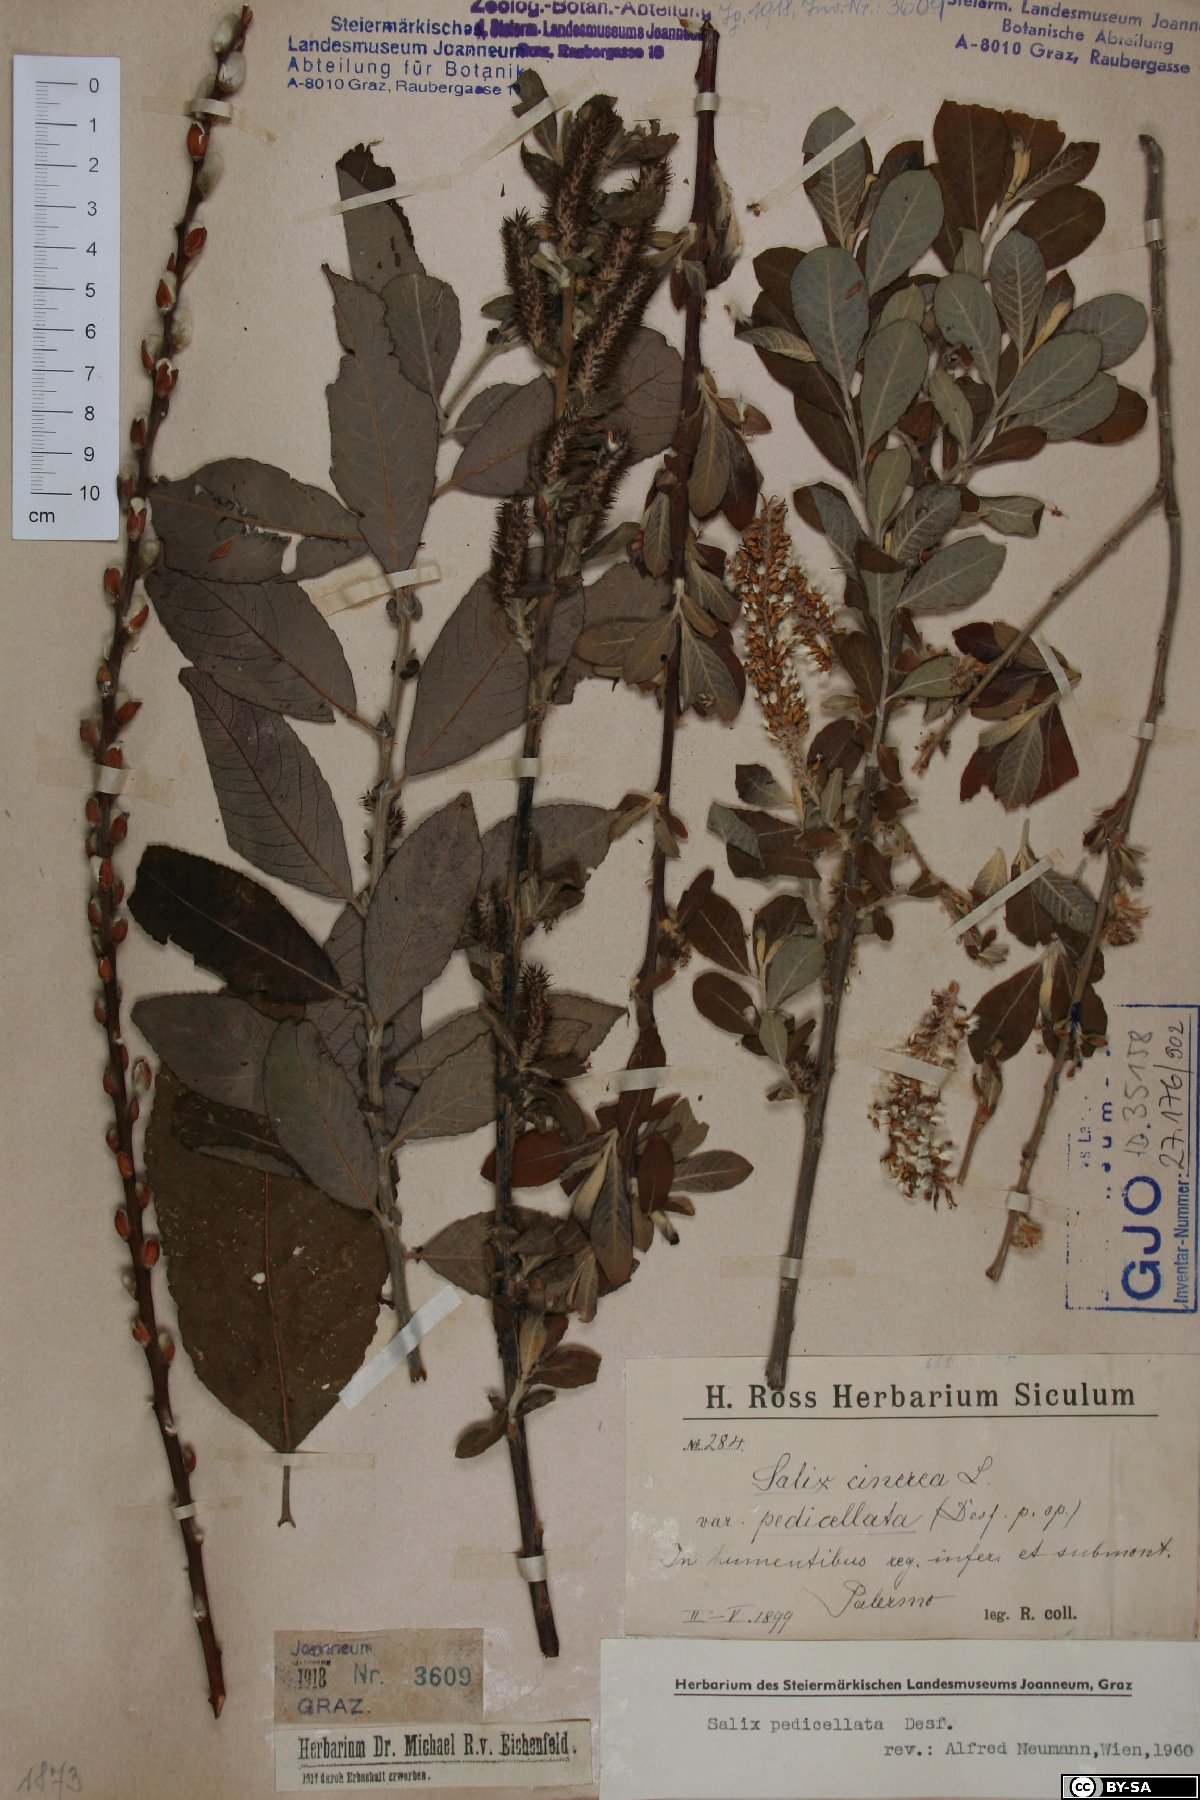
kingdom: Plantae
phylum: Tracheophyta
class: Magnoliopsida
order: Malpighiales
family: Salicaceae
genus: Salix
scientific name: Salix pedicellata
